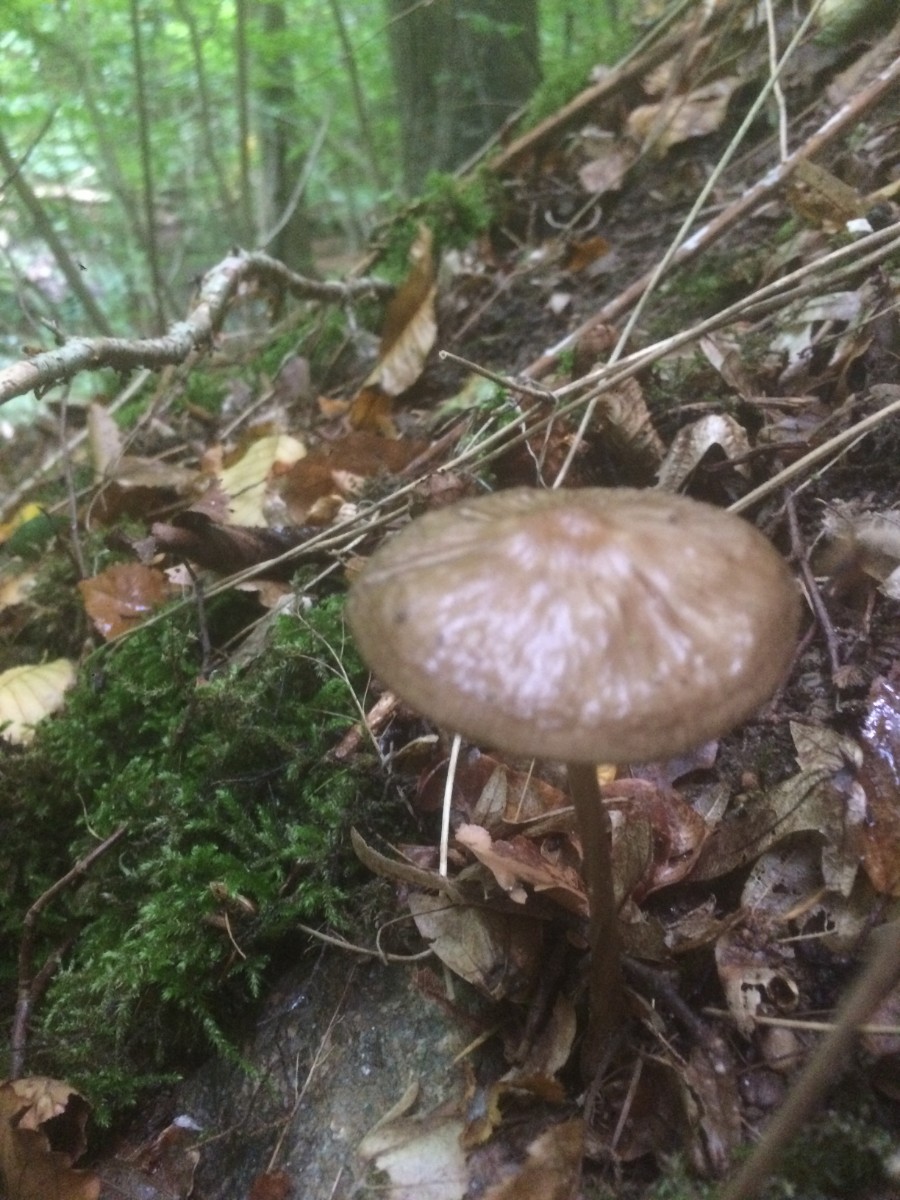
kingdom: Fungi
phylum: Basidiomycota
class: Agaricomycetes
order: Agaricales
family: Physalacriaceae
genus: Hymenopellis
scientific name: Hymenopellis radicata
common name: almindelig pælerodshat
